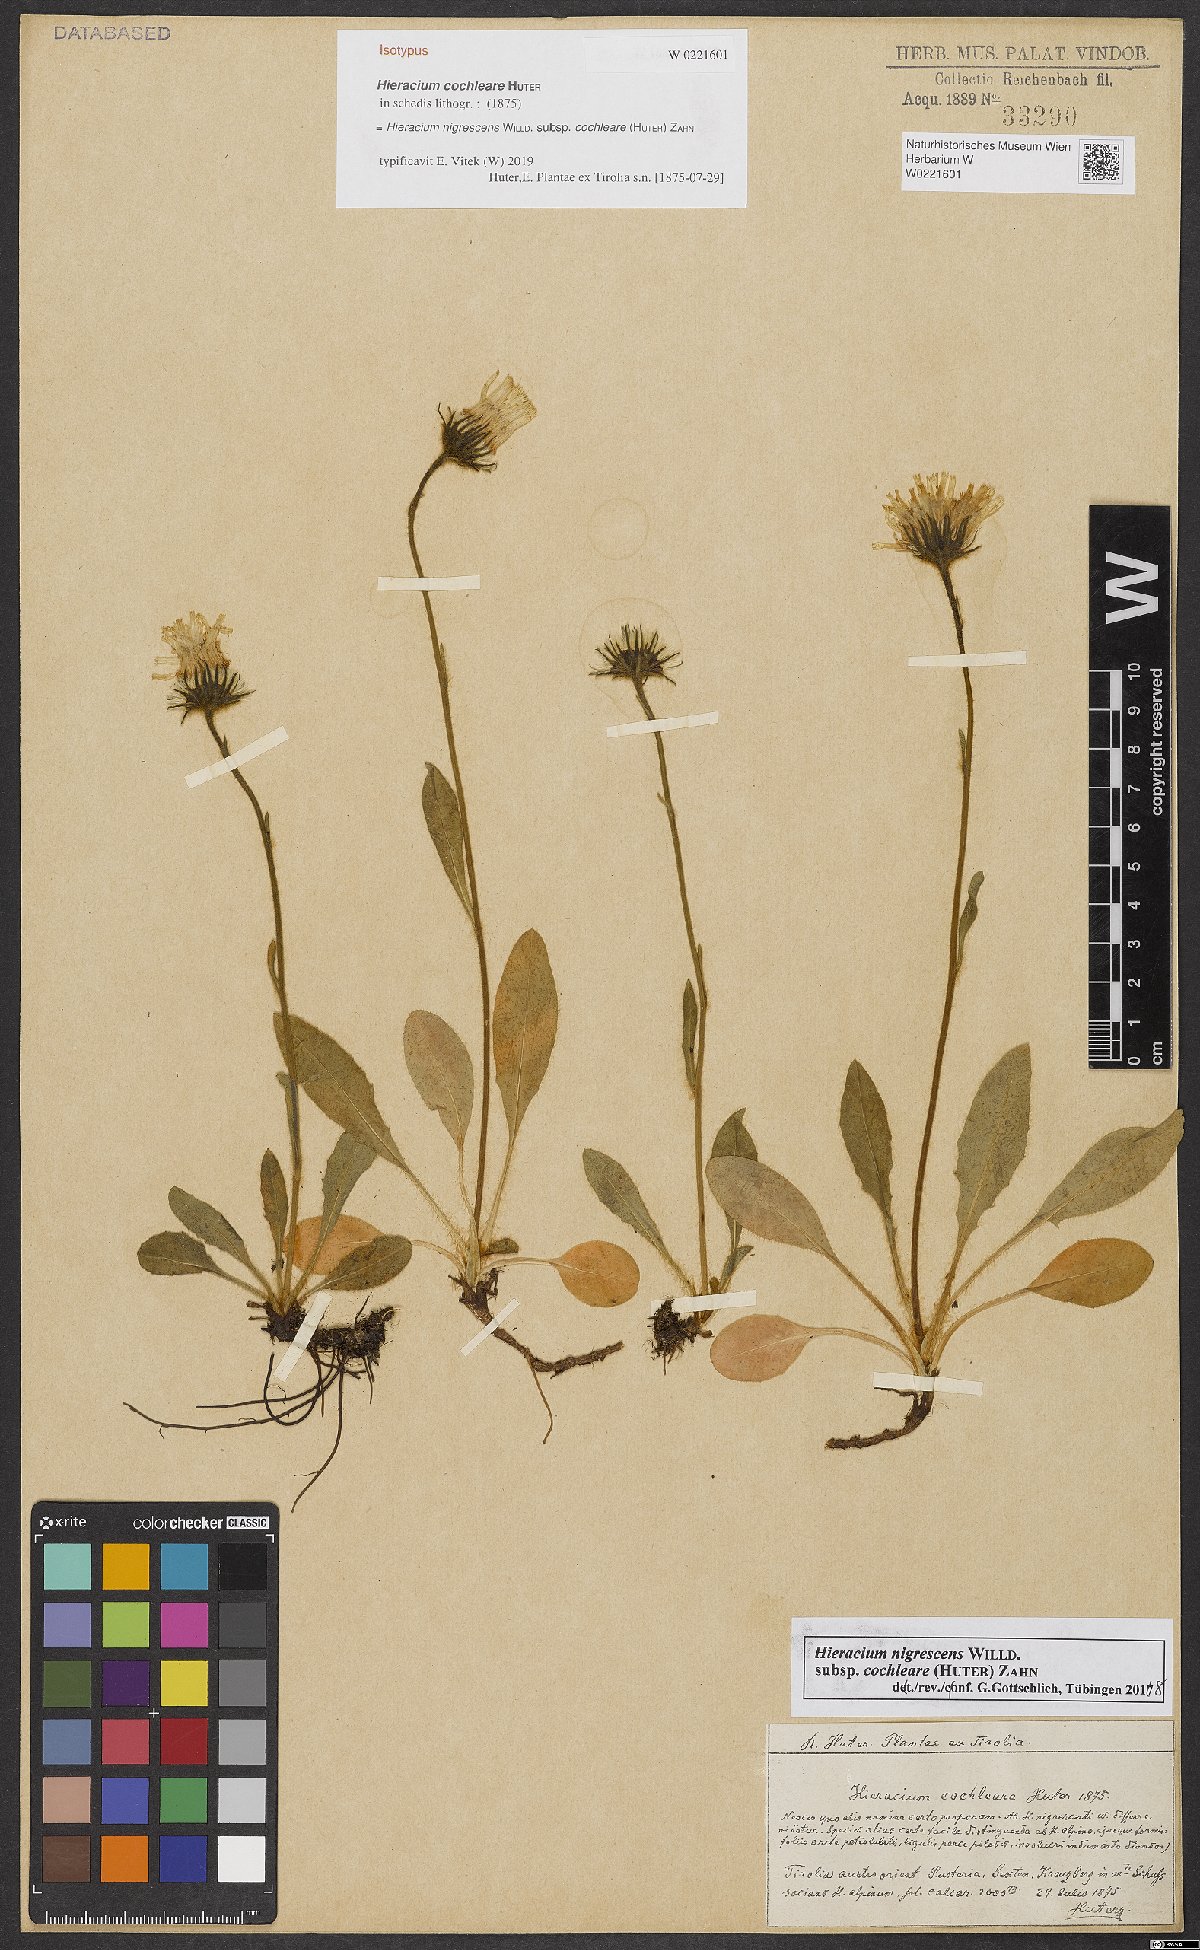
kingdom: Plantae
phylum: Tracheophyta
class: Magnoliopsida
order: Asterales
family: Asteraceae
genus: Hieracium
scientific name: Hieracium nigrescens
